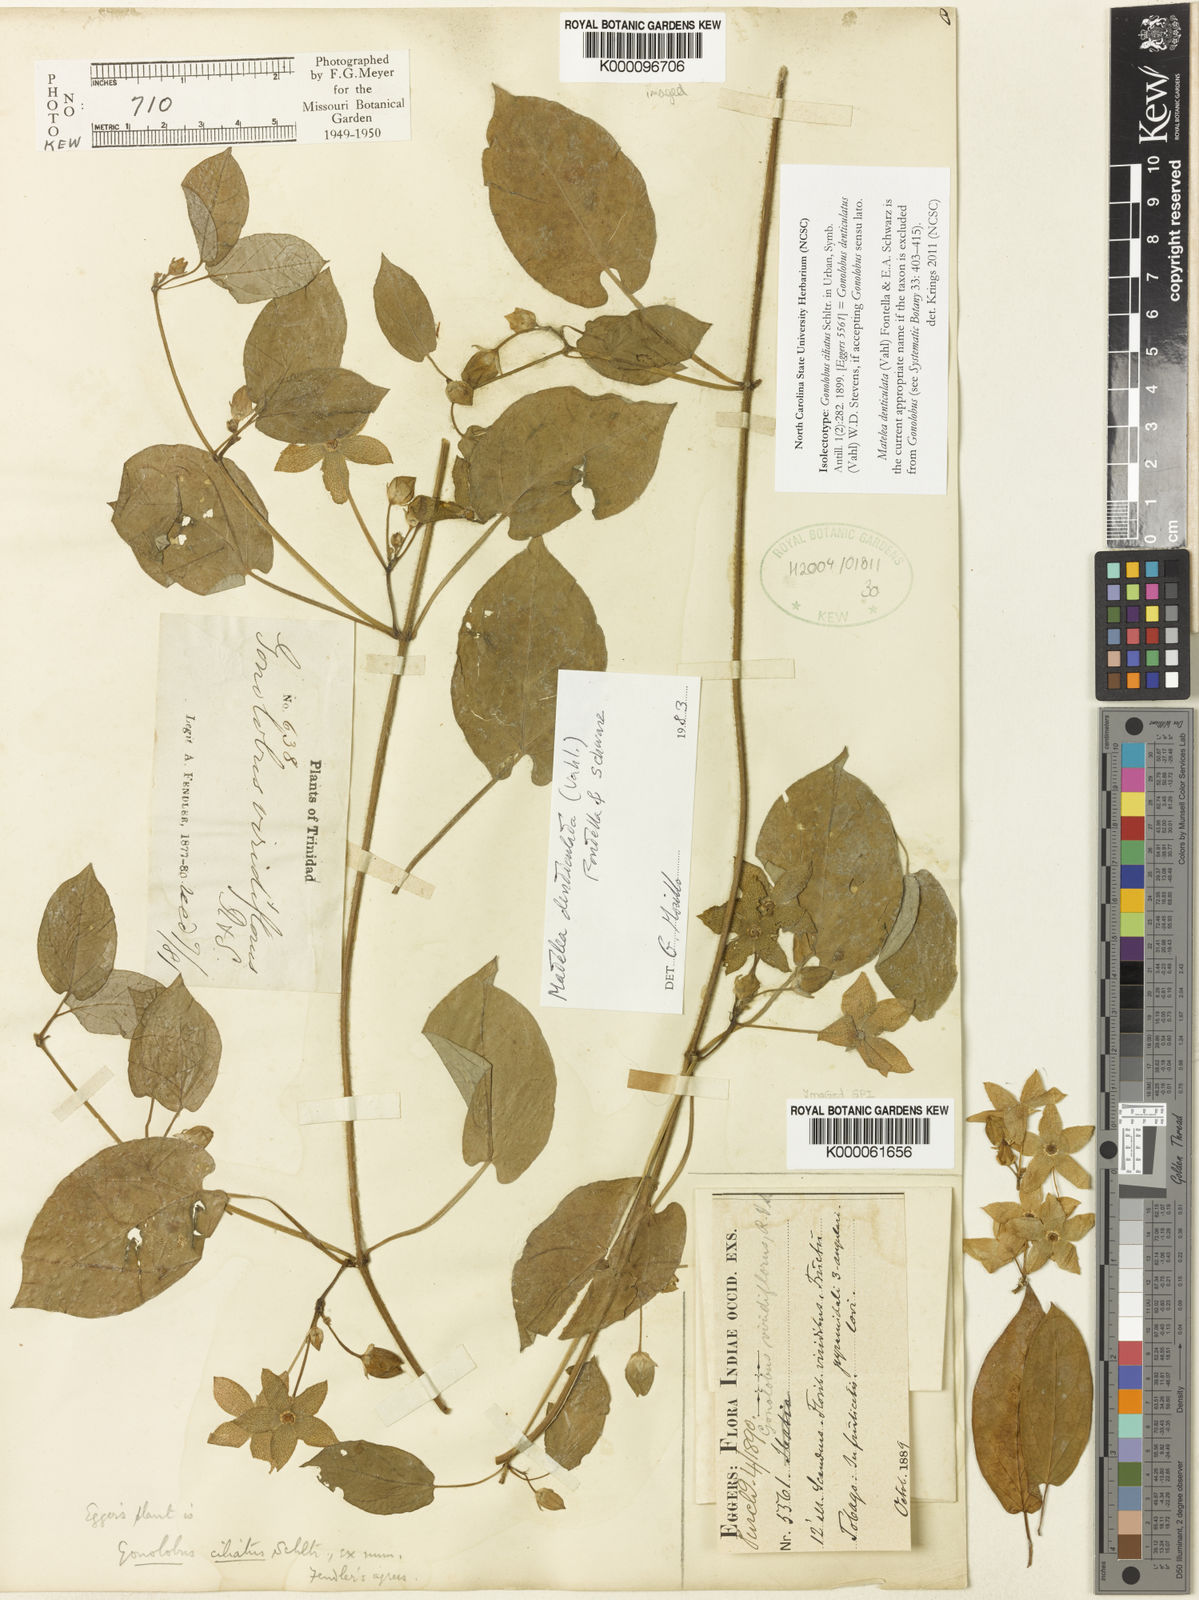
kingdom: Plantae
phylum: Tracheophyta
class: Magnoliopsida
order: Gentianales
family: Apocynaceae
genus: Chloropetalum
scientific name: Chloropetalum denticulatum
